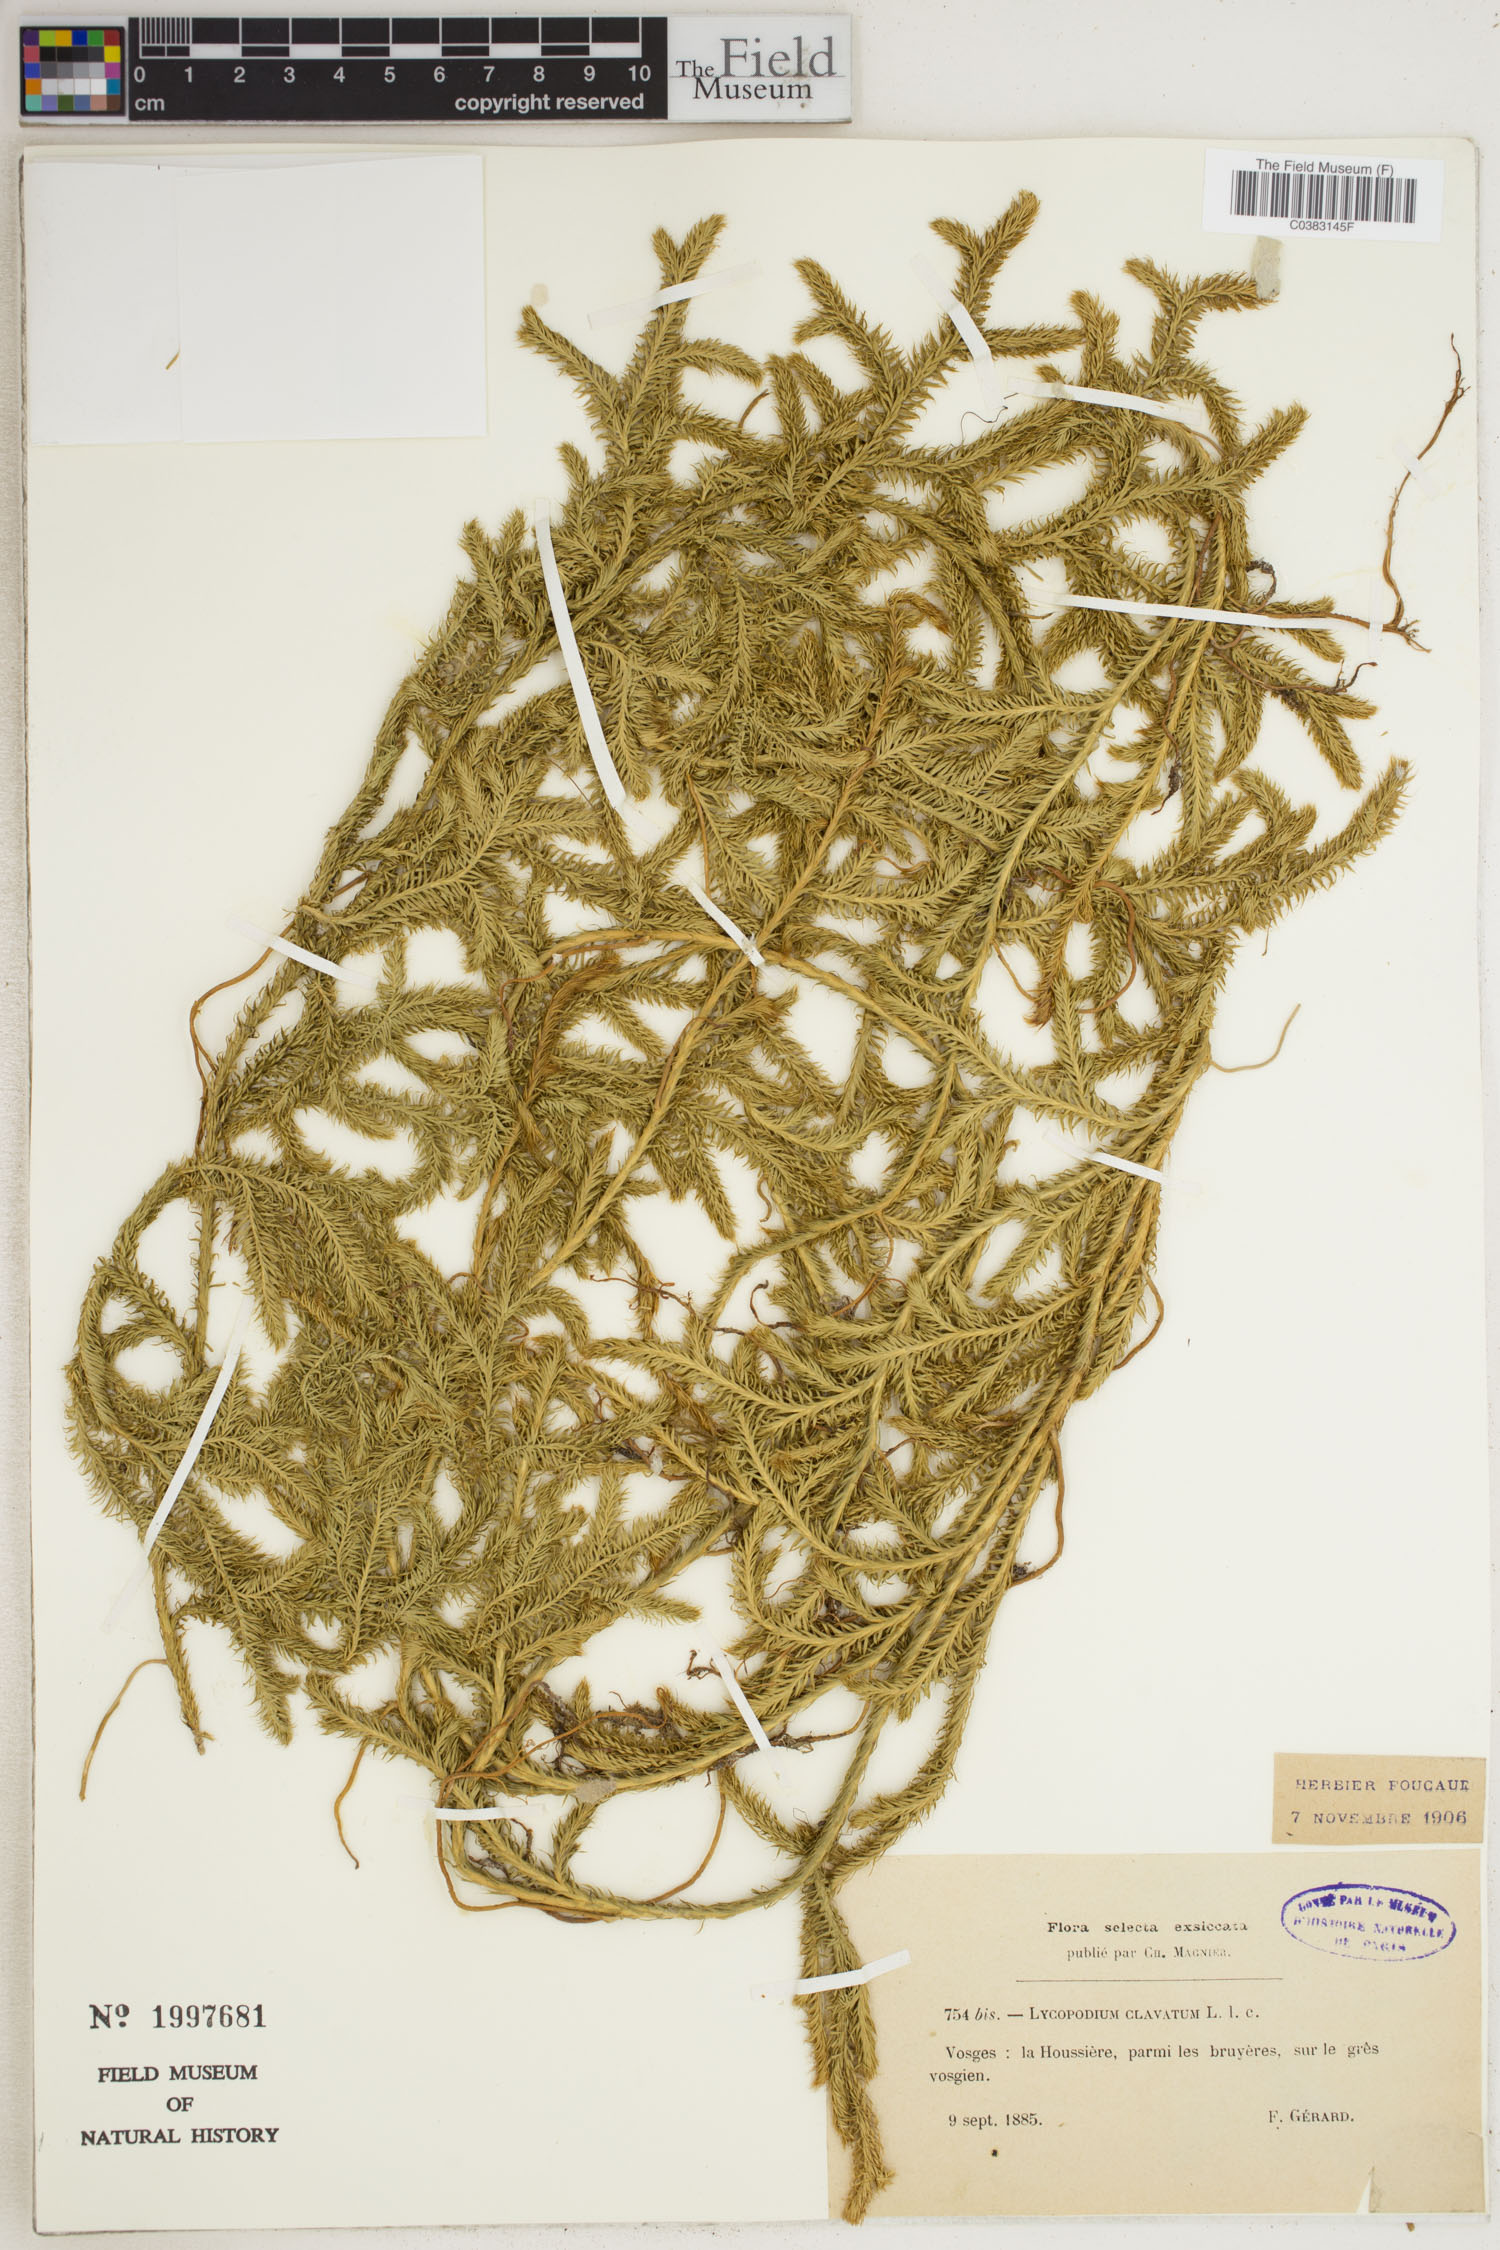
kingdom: Plantae
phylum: Tracheophyta
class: Lycopodiopsida
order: Lycopodiales
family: Lycopodiaceae
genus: Lycopodium
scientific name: Lycopodium clavatum
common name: Stag's-horn clubmoss
